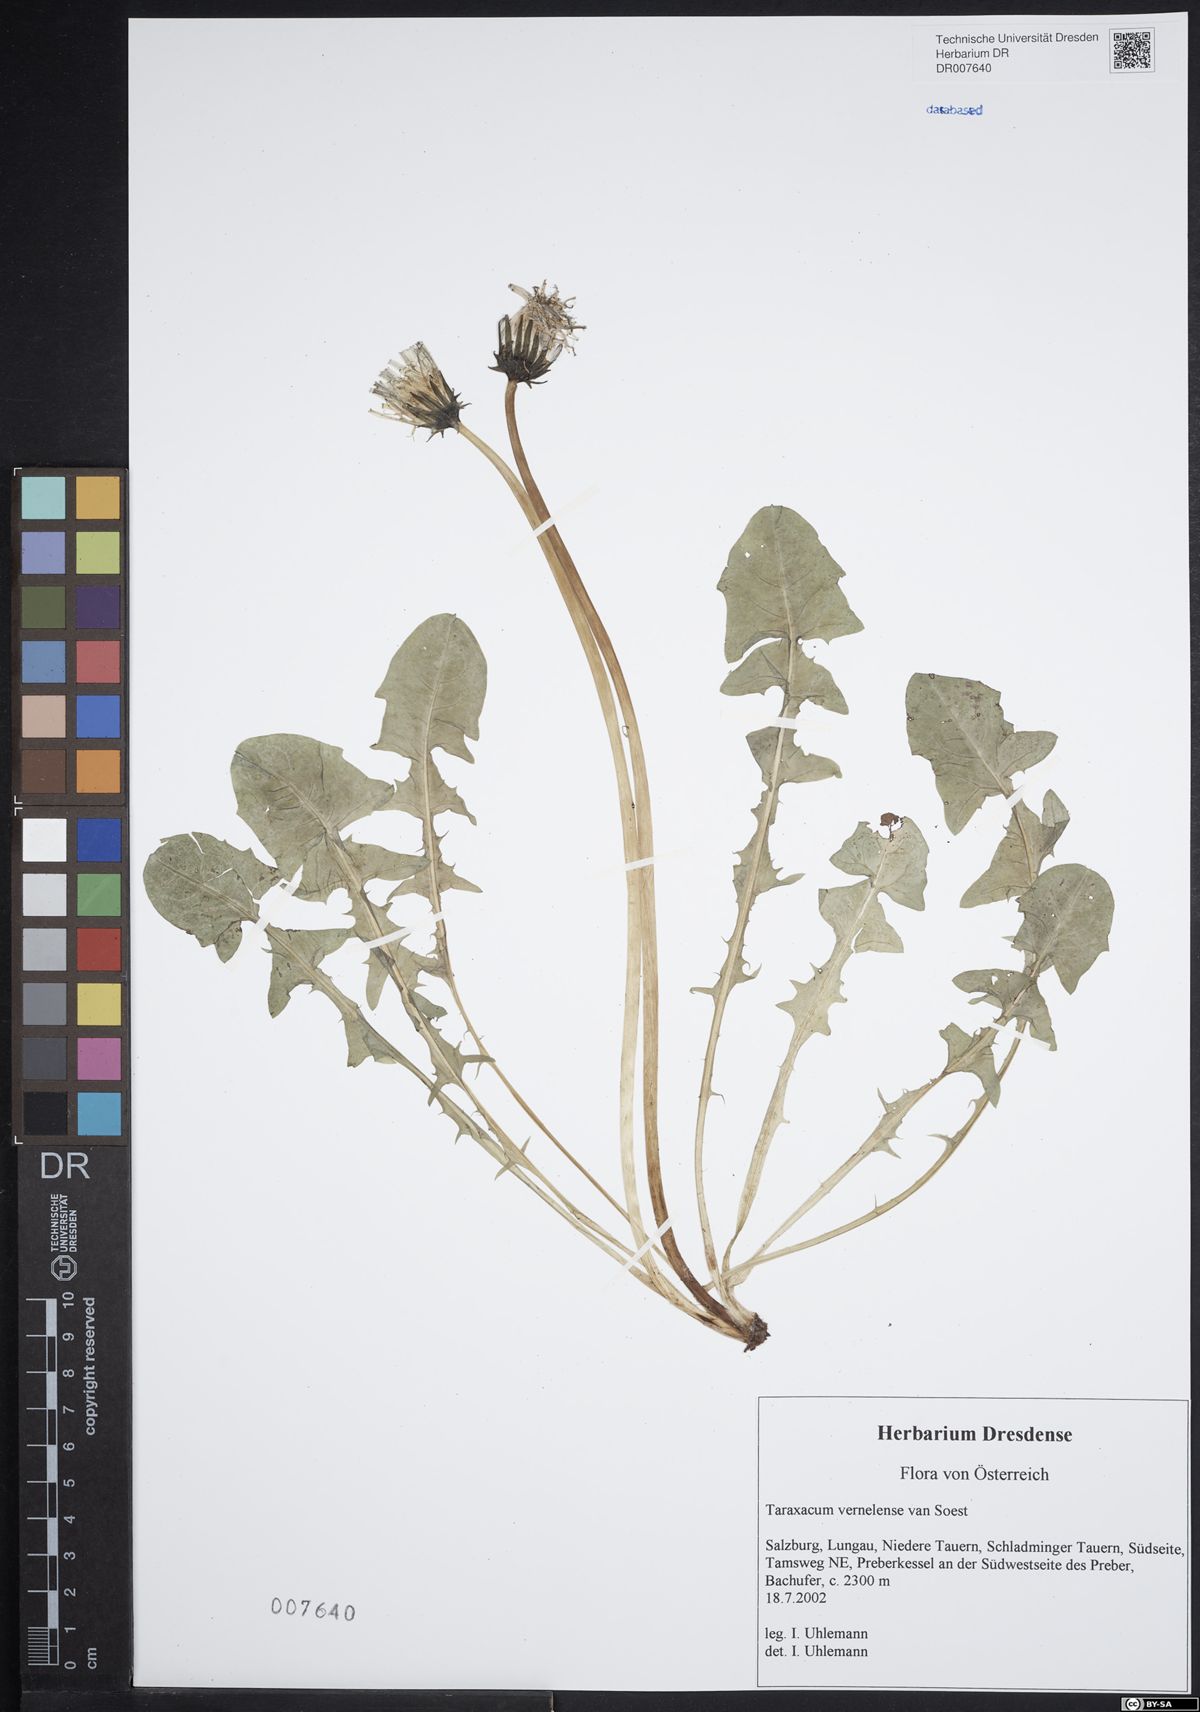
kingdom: Plantae
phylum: Tracheophyta
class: Magnoliopsida
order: Asterales
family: Asteraceae
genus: Taraxacum
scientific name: Taraxacum vernelense
